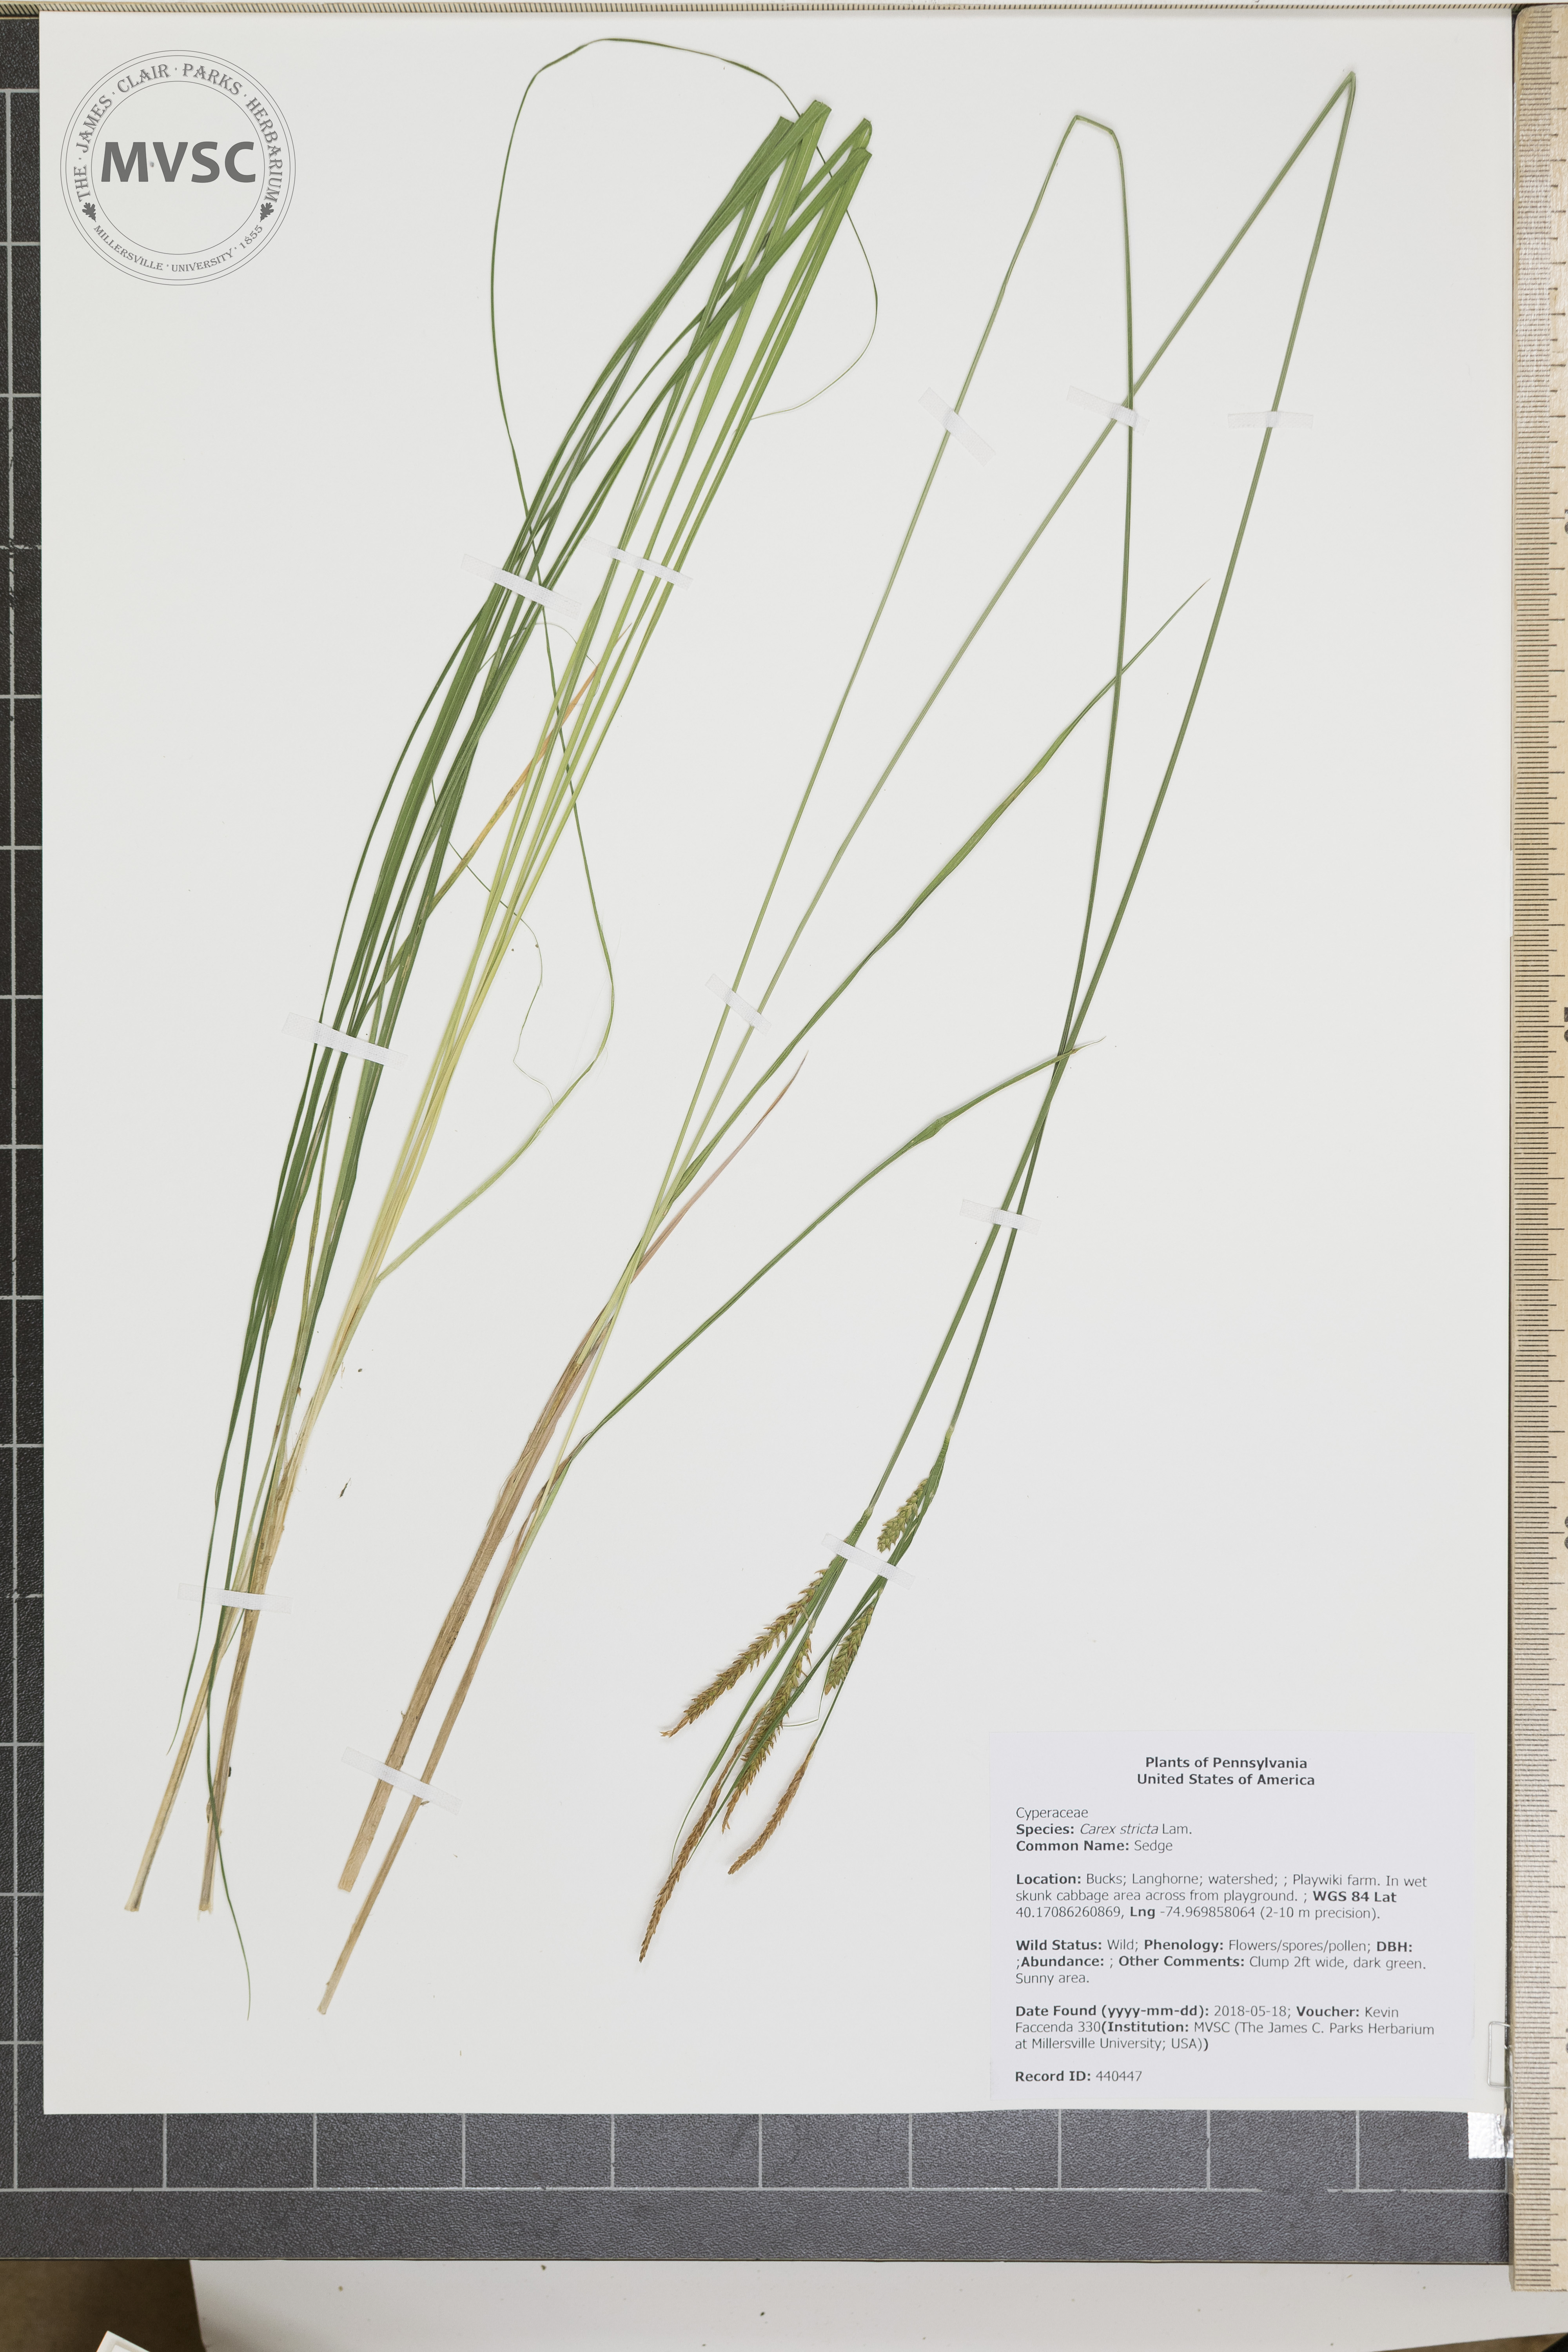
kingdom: Plantae
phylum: Tracheophyta
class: Liliopsida
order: Poales
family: Cyperaceae
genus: Carex
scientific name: Carex stricta
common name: Sedge
